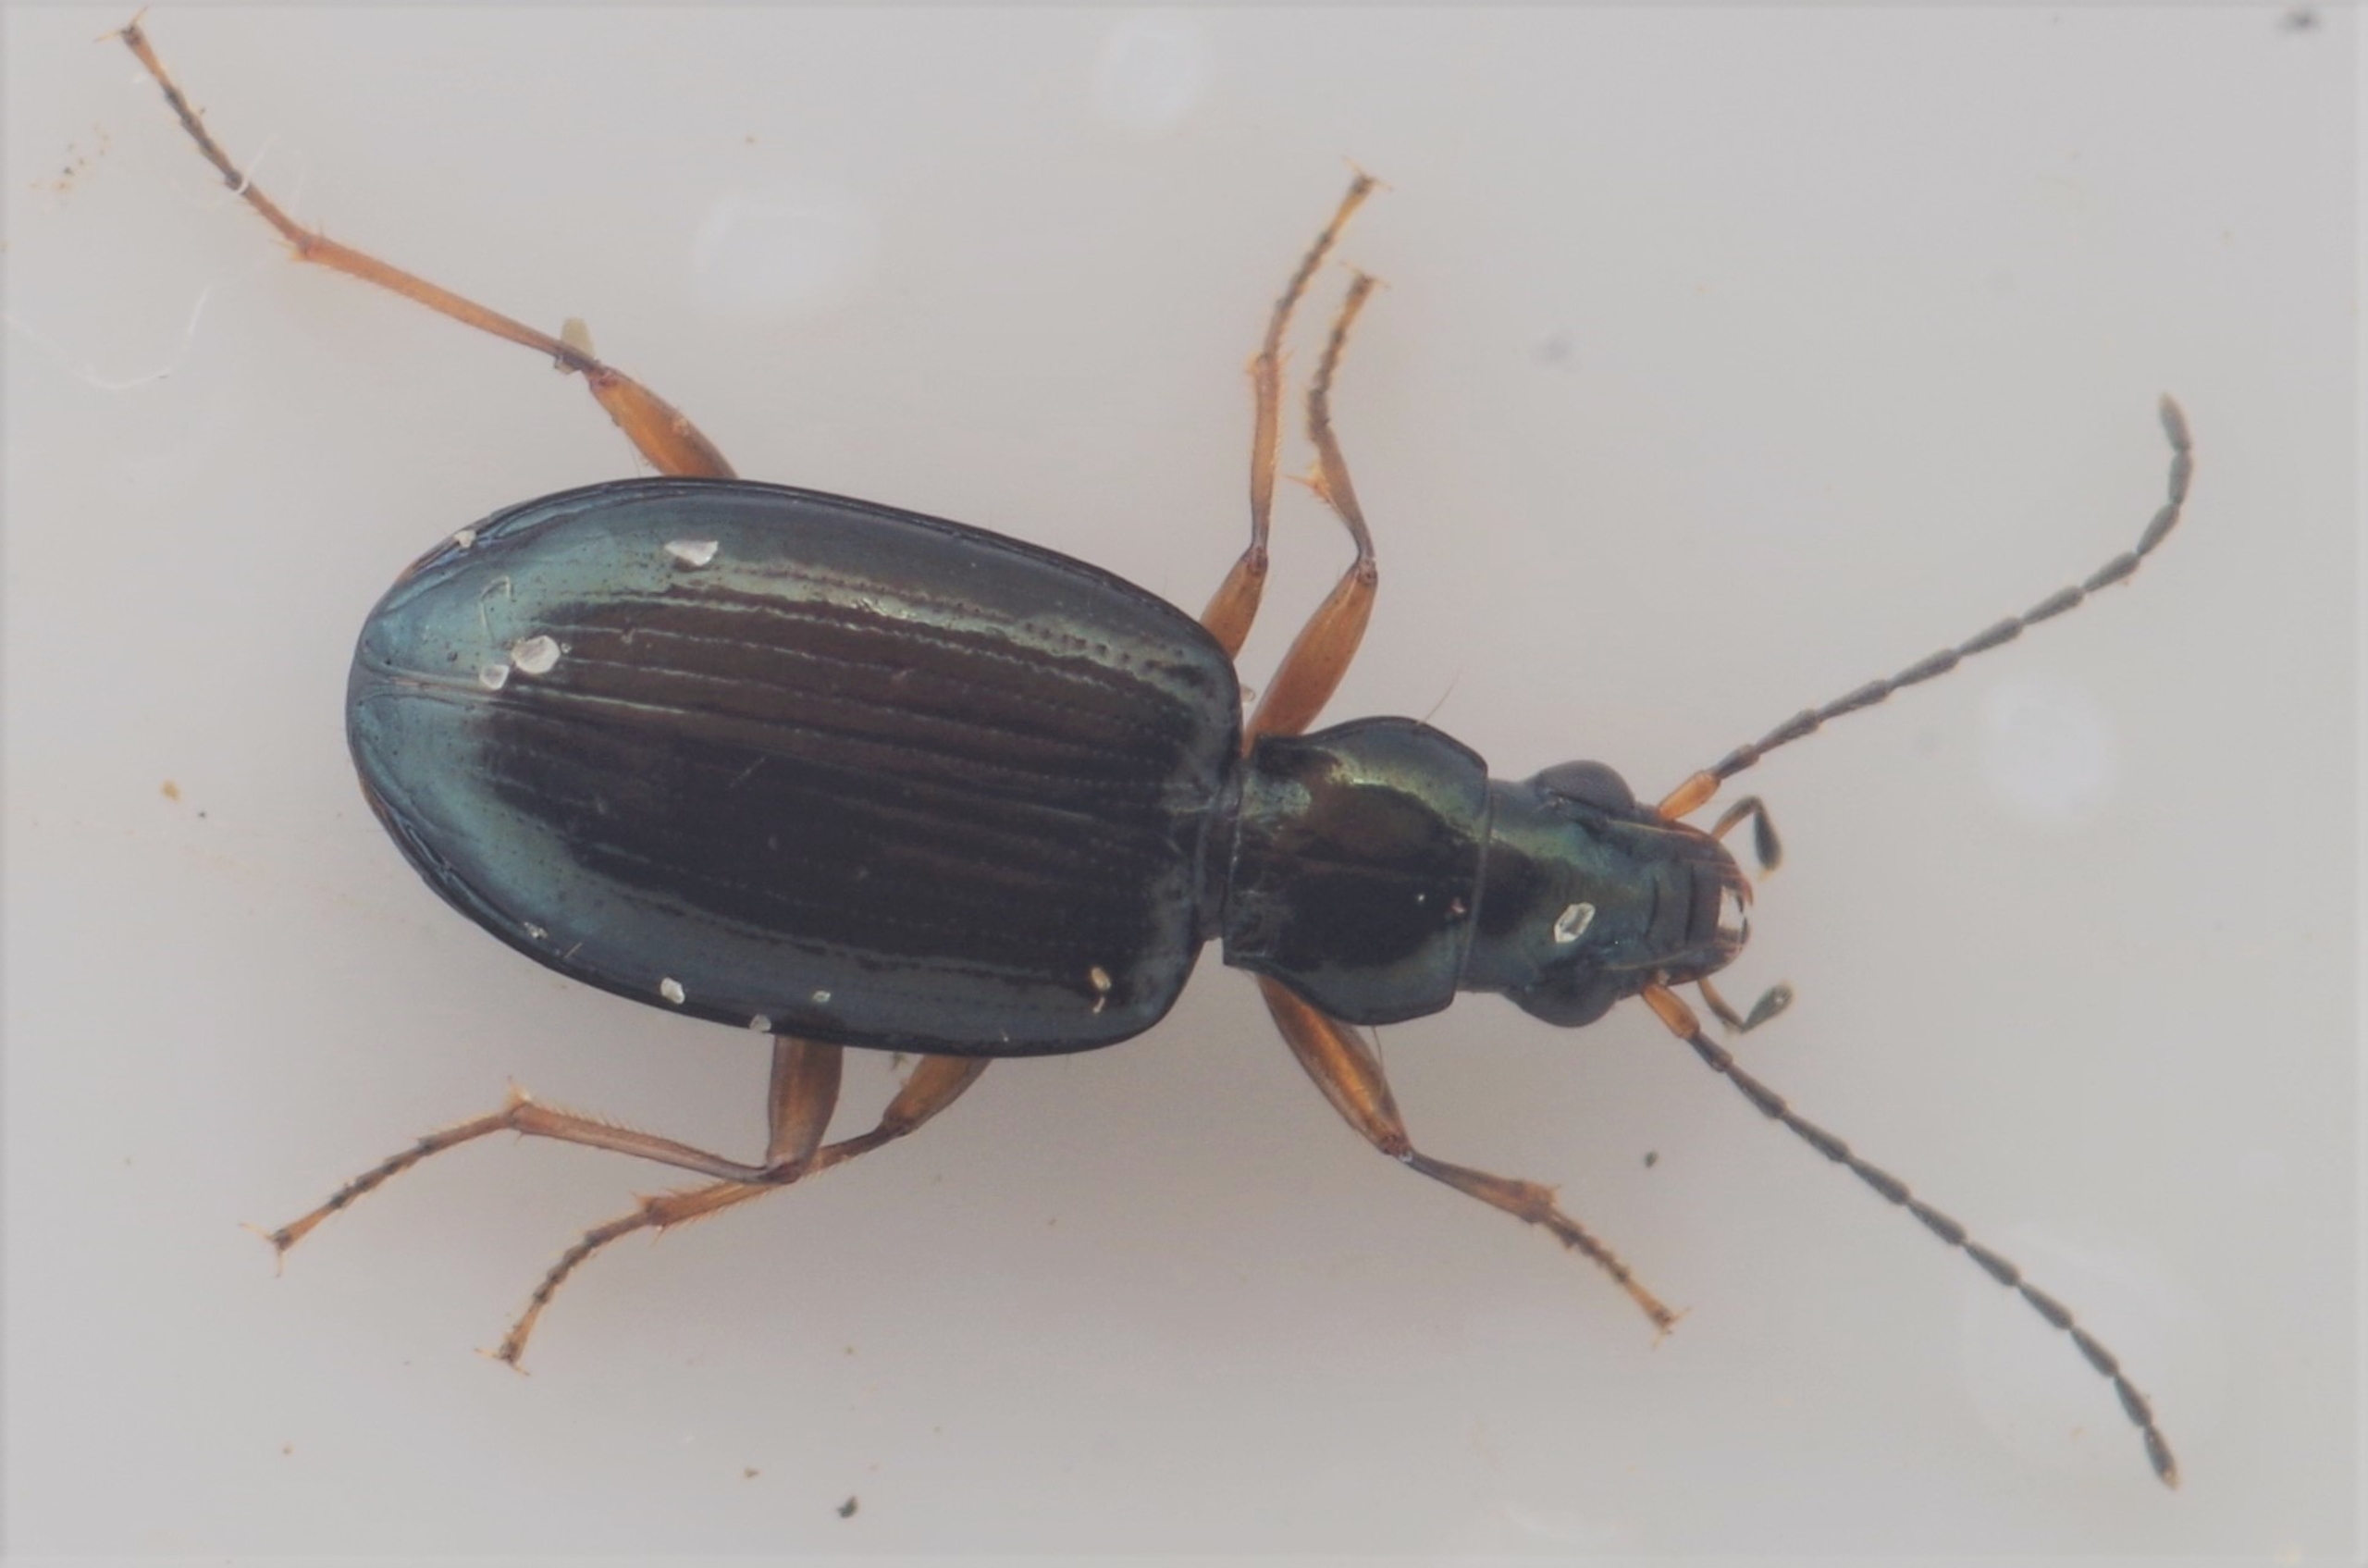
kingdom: Animalia
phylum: Arthropoda
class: Insecta
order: Coleoptera
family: Carabidae
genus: Bembidion
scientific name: Bembidion monticola
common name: Bjergglansløber
